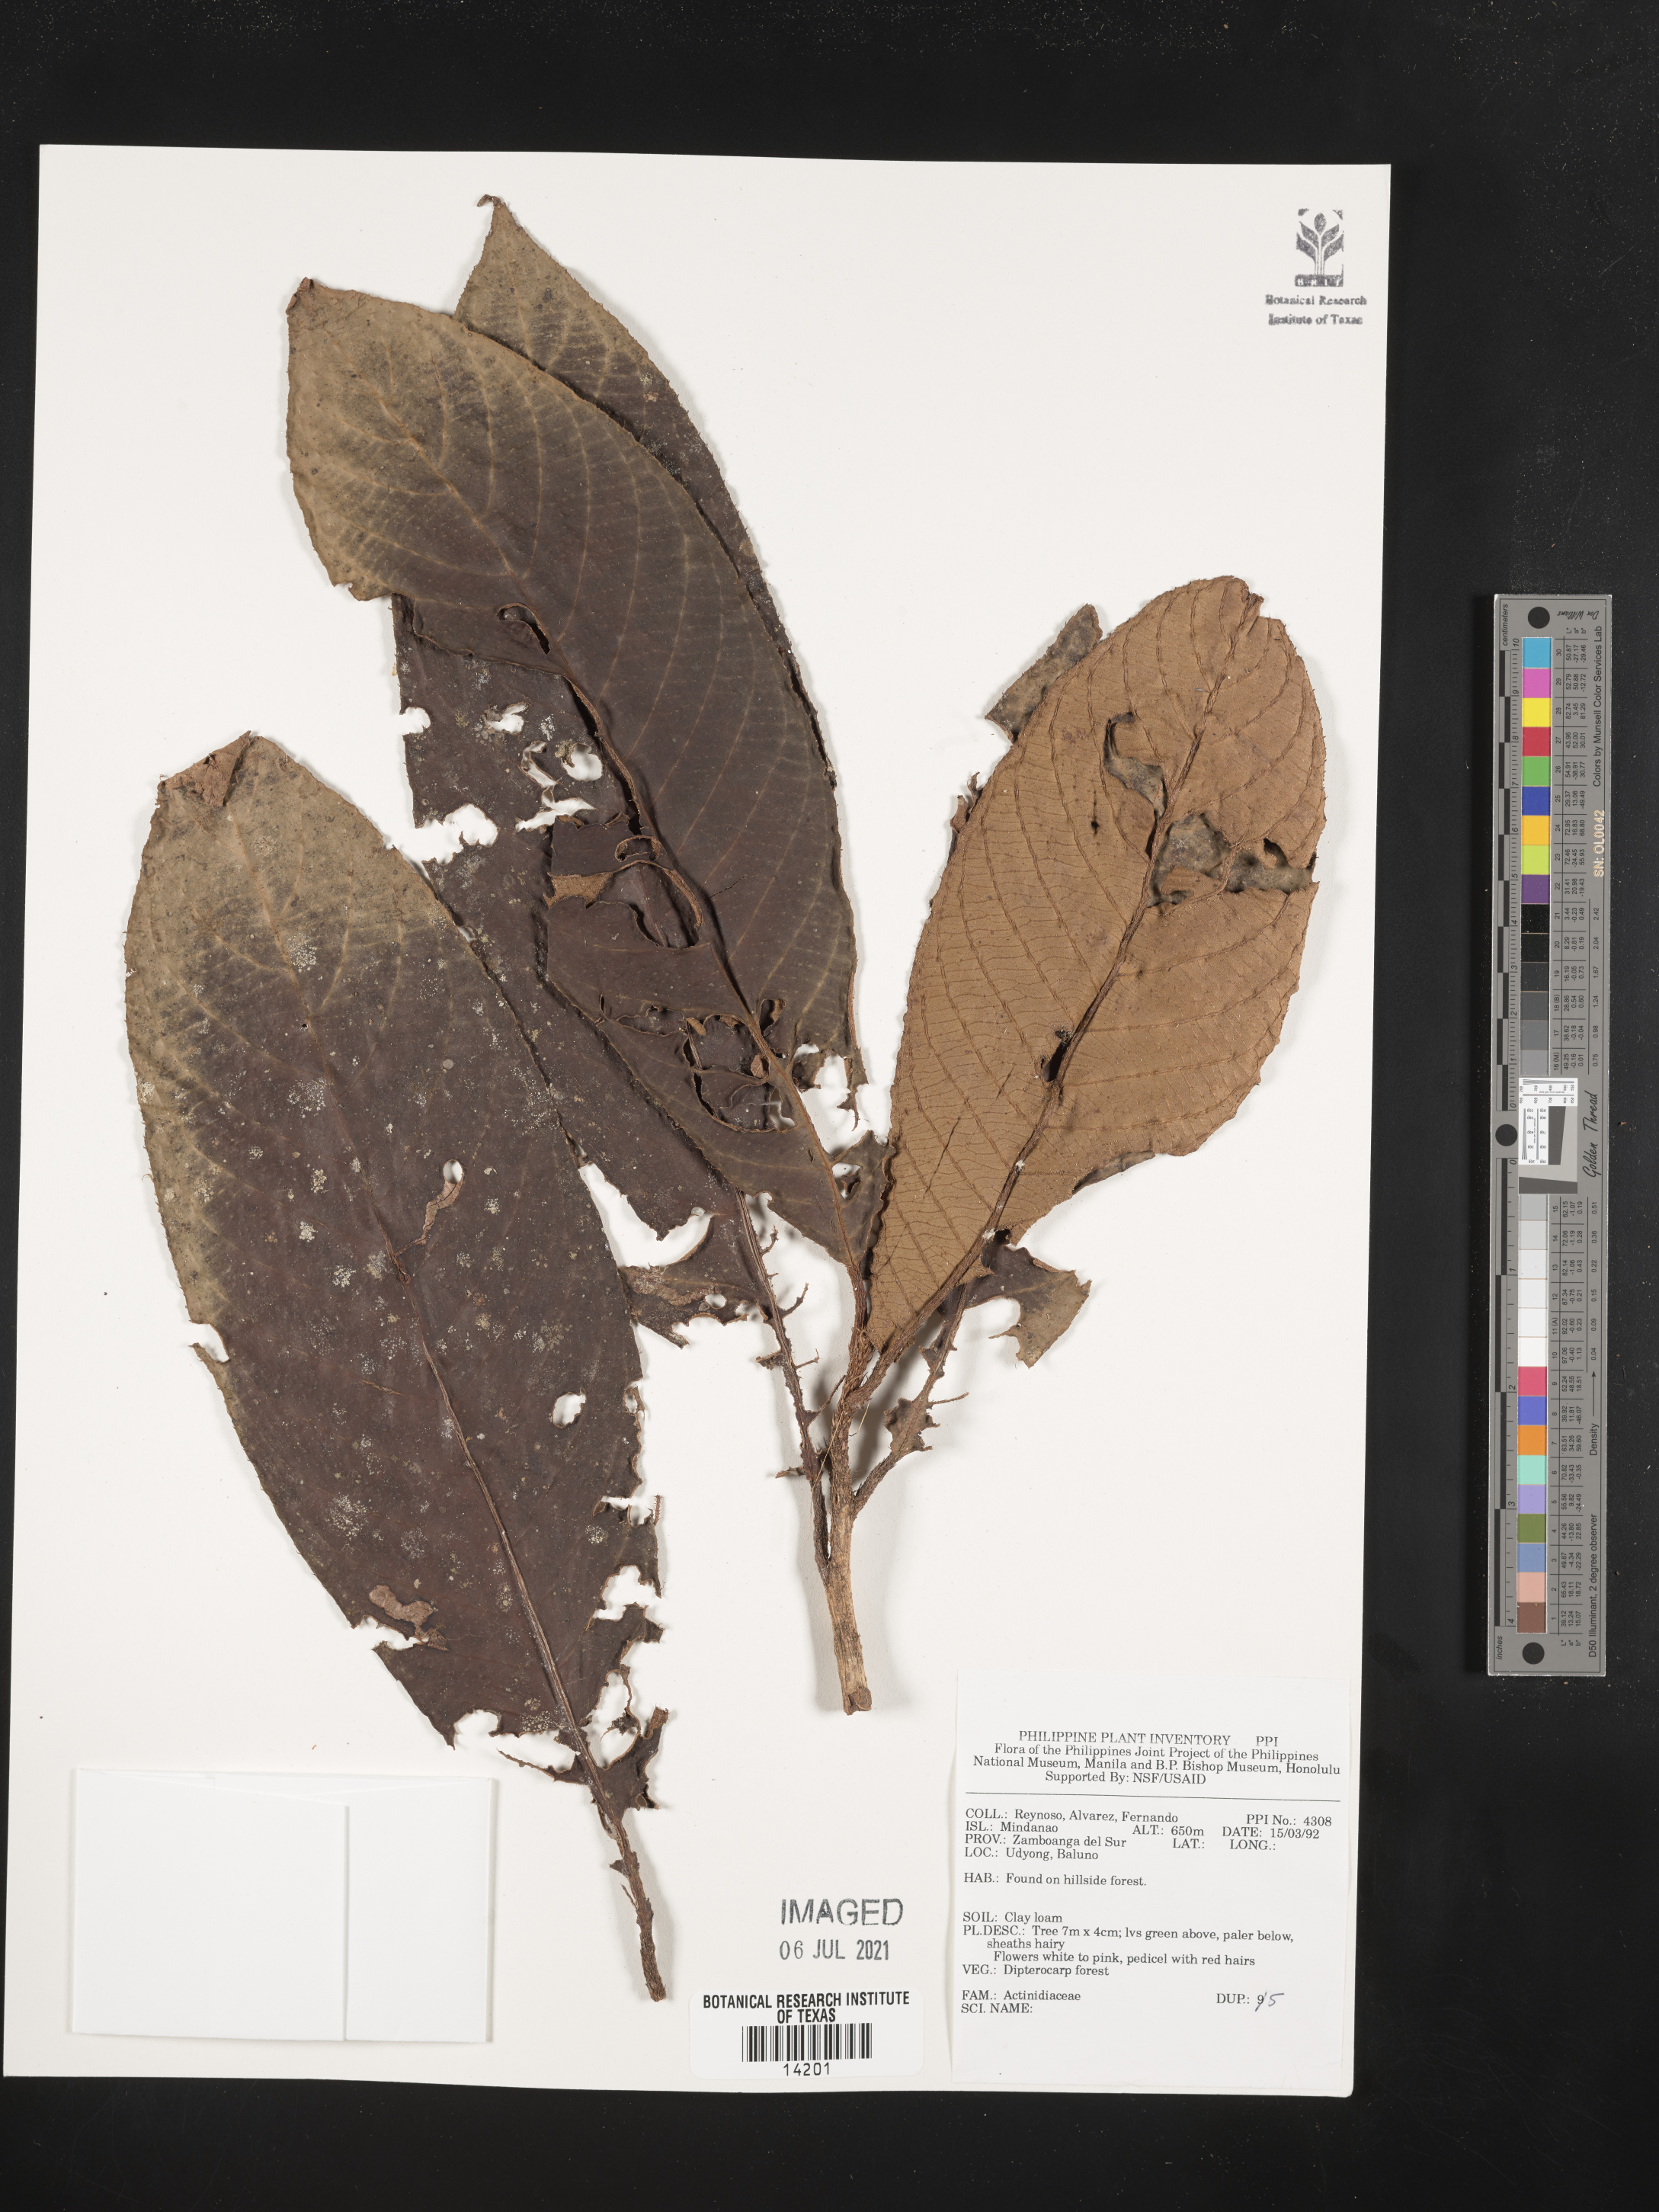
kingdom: Plantae
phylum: Tracheophyta
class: Magnoliopsida
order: Ericales
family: Actinidiaceae
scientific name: Actinidiaceae
